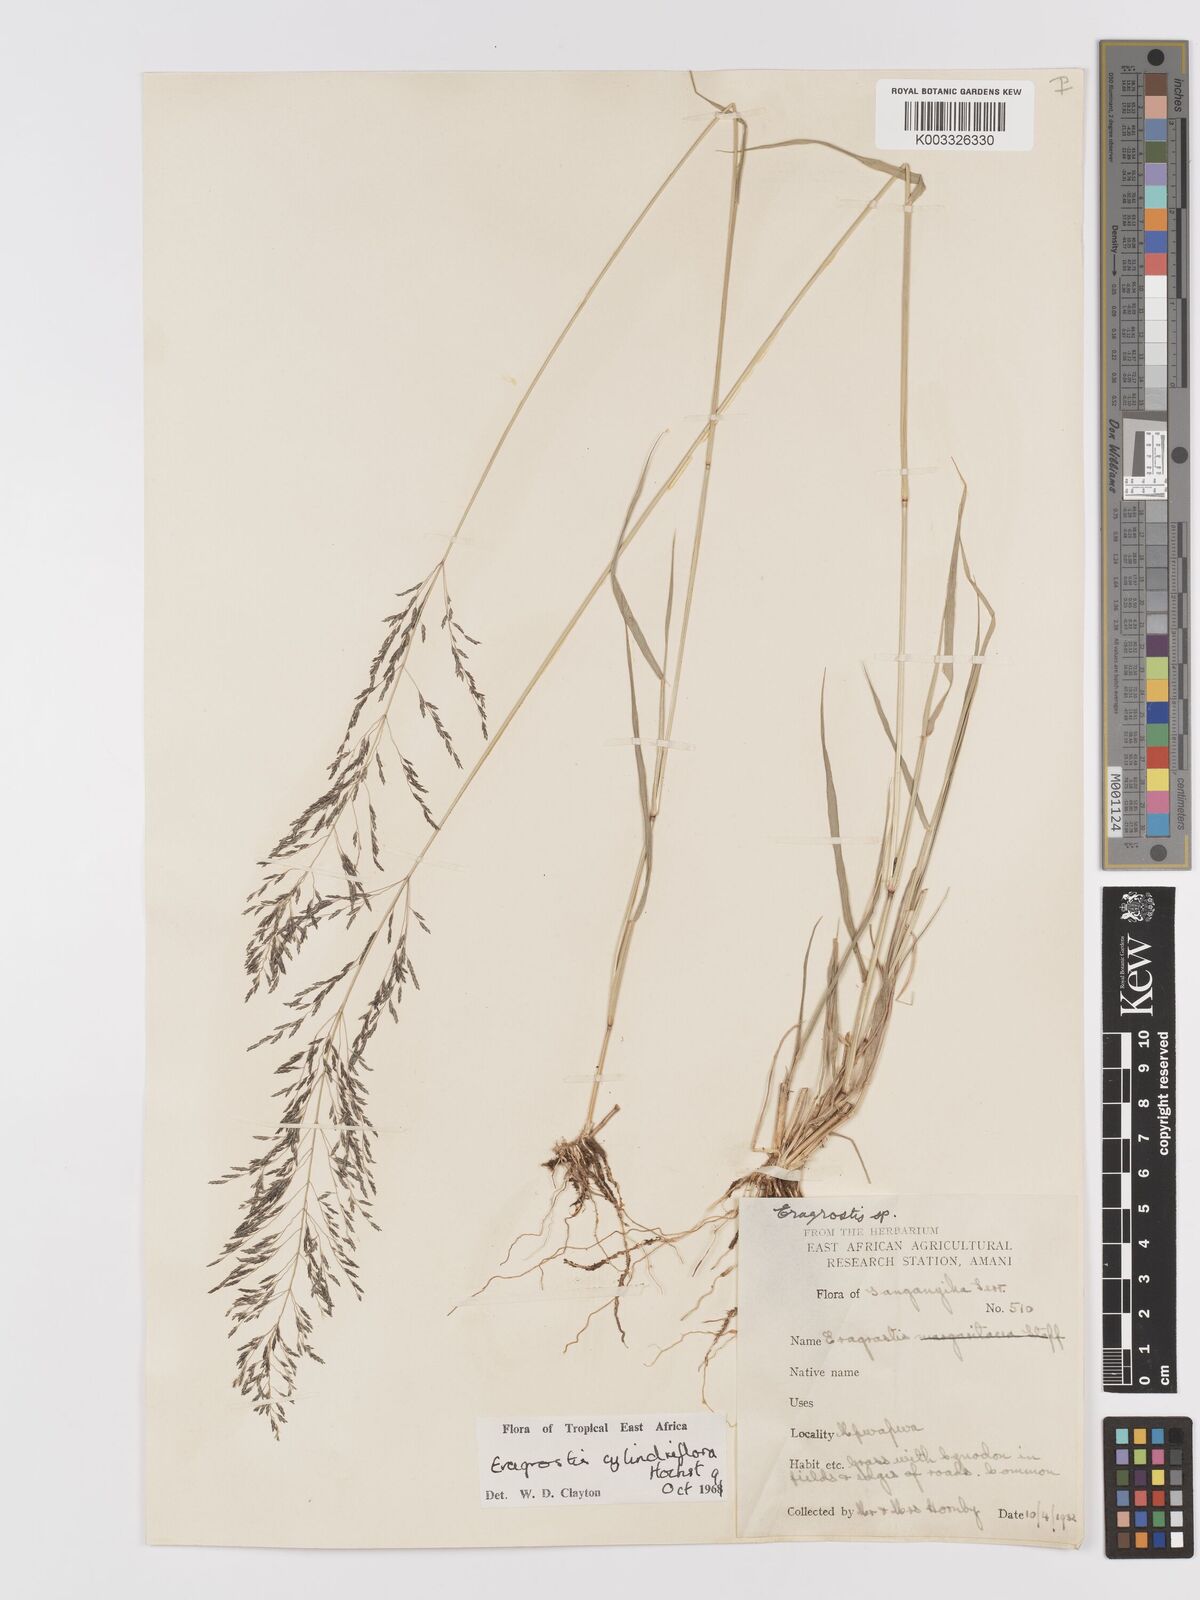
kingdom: Plantae
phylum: Tracheophyta
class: Liliopsida
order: Poales
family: Poaceae
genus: Eragrostis
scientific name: Eragrostis cylindriflora
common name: Cylinderflower lovegrass
